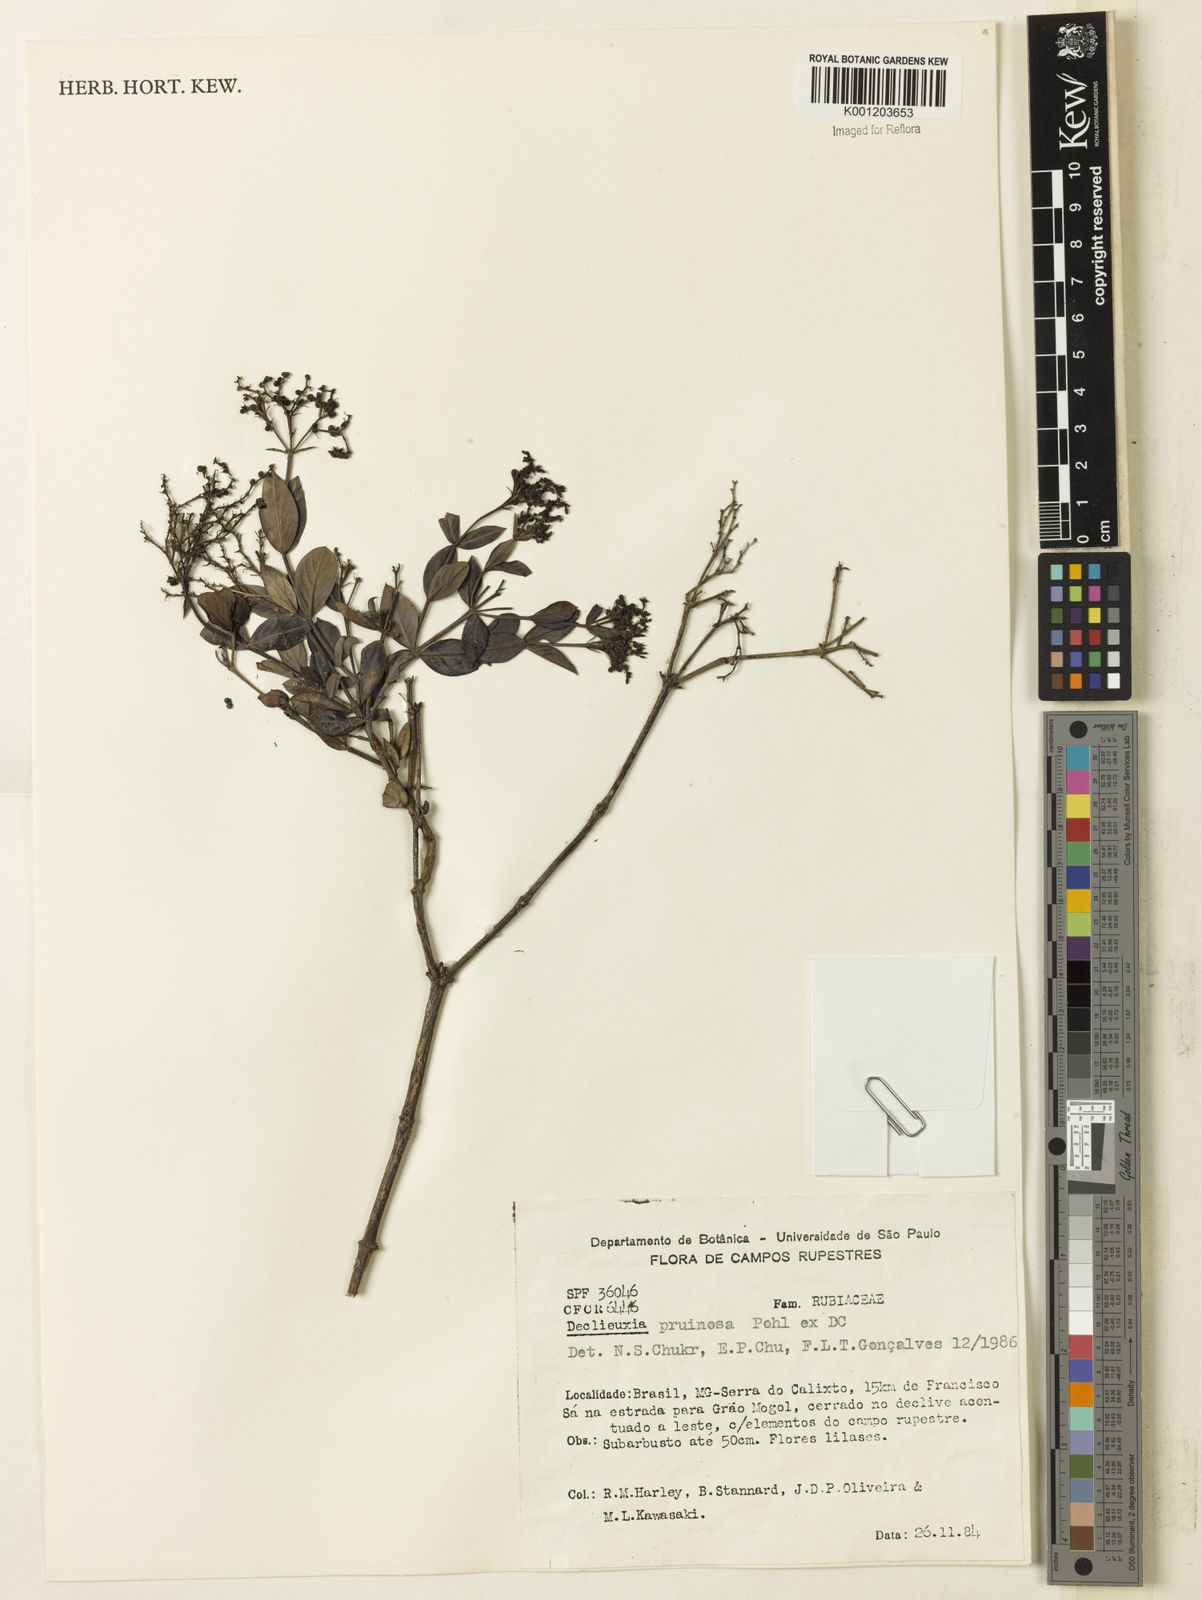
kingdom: Plantae
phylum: Tracheophyta
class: Magnoliopsida
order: Gentianales
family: Rubiaceae
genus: Declieuxia
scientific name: Declieuxia pruinosa
